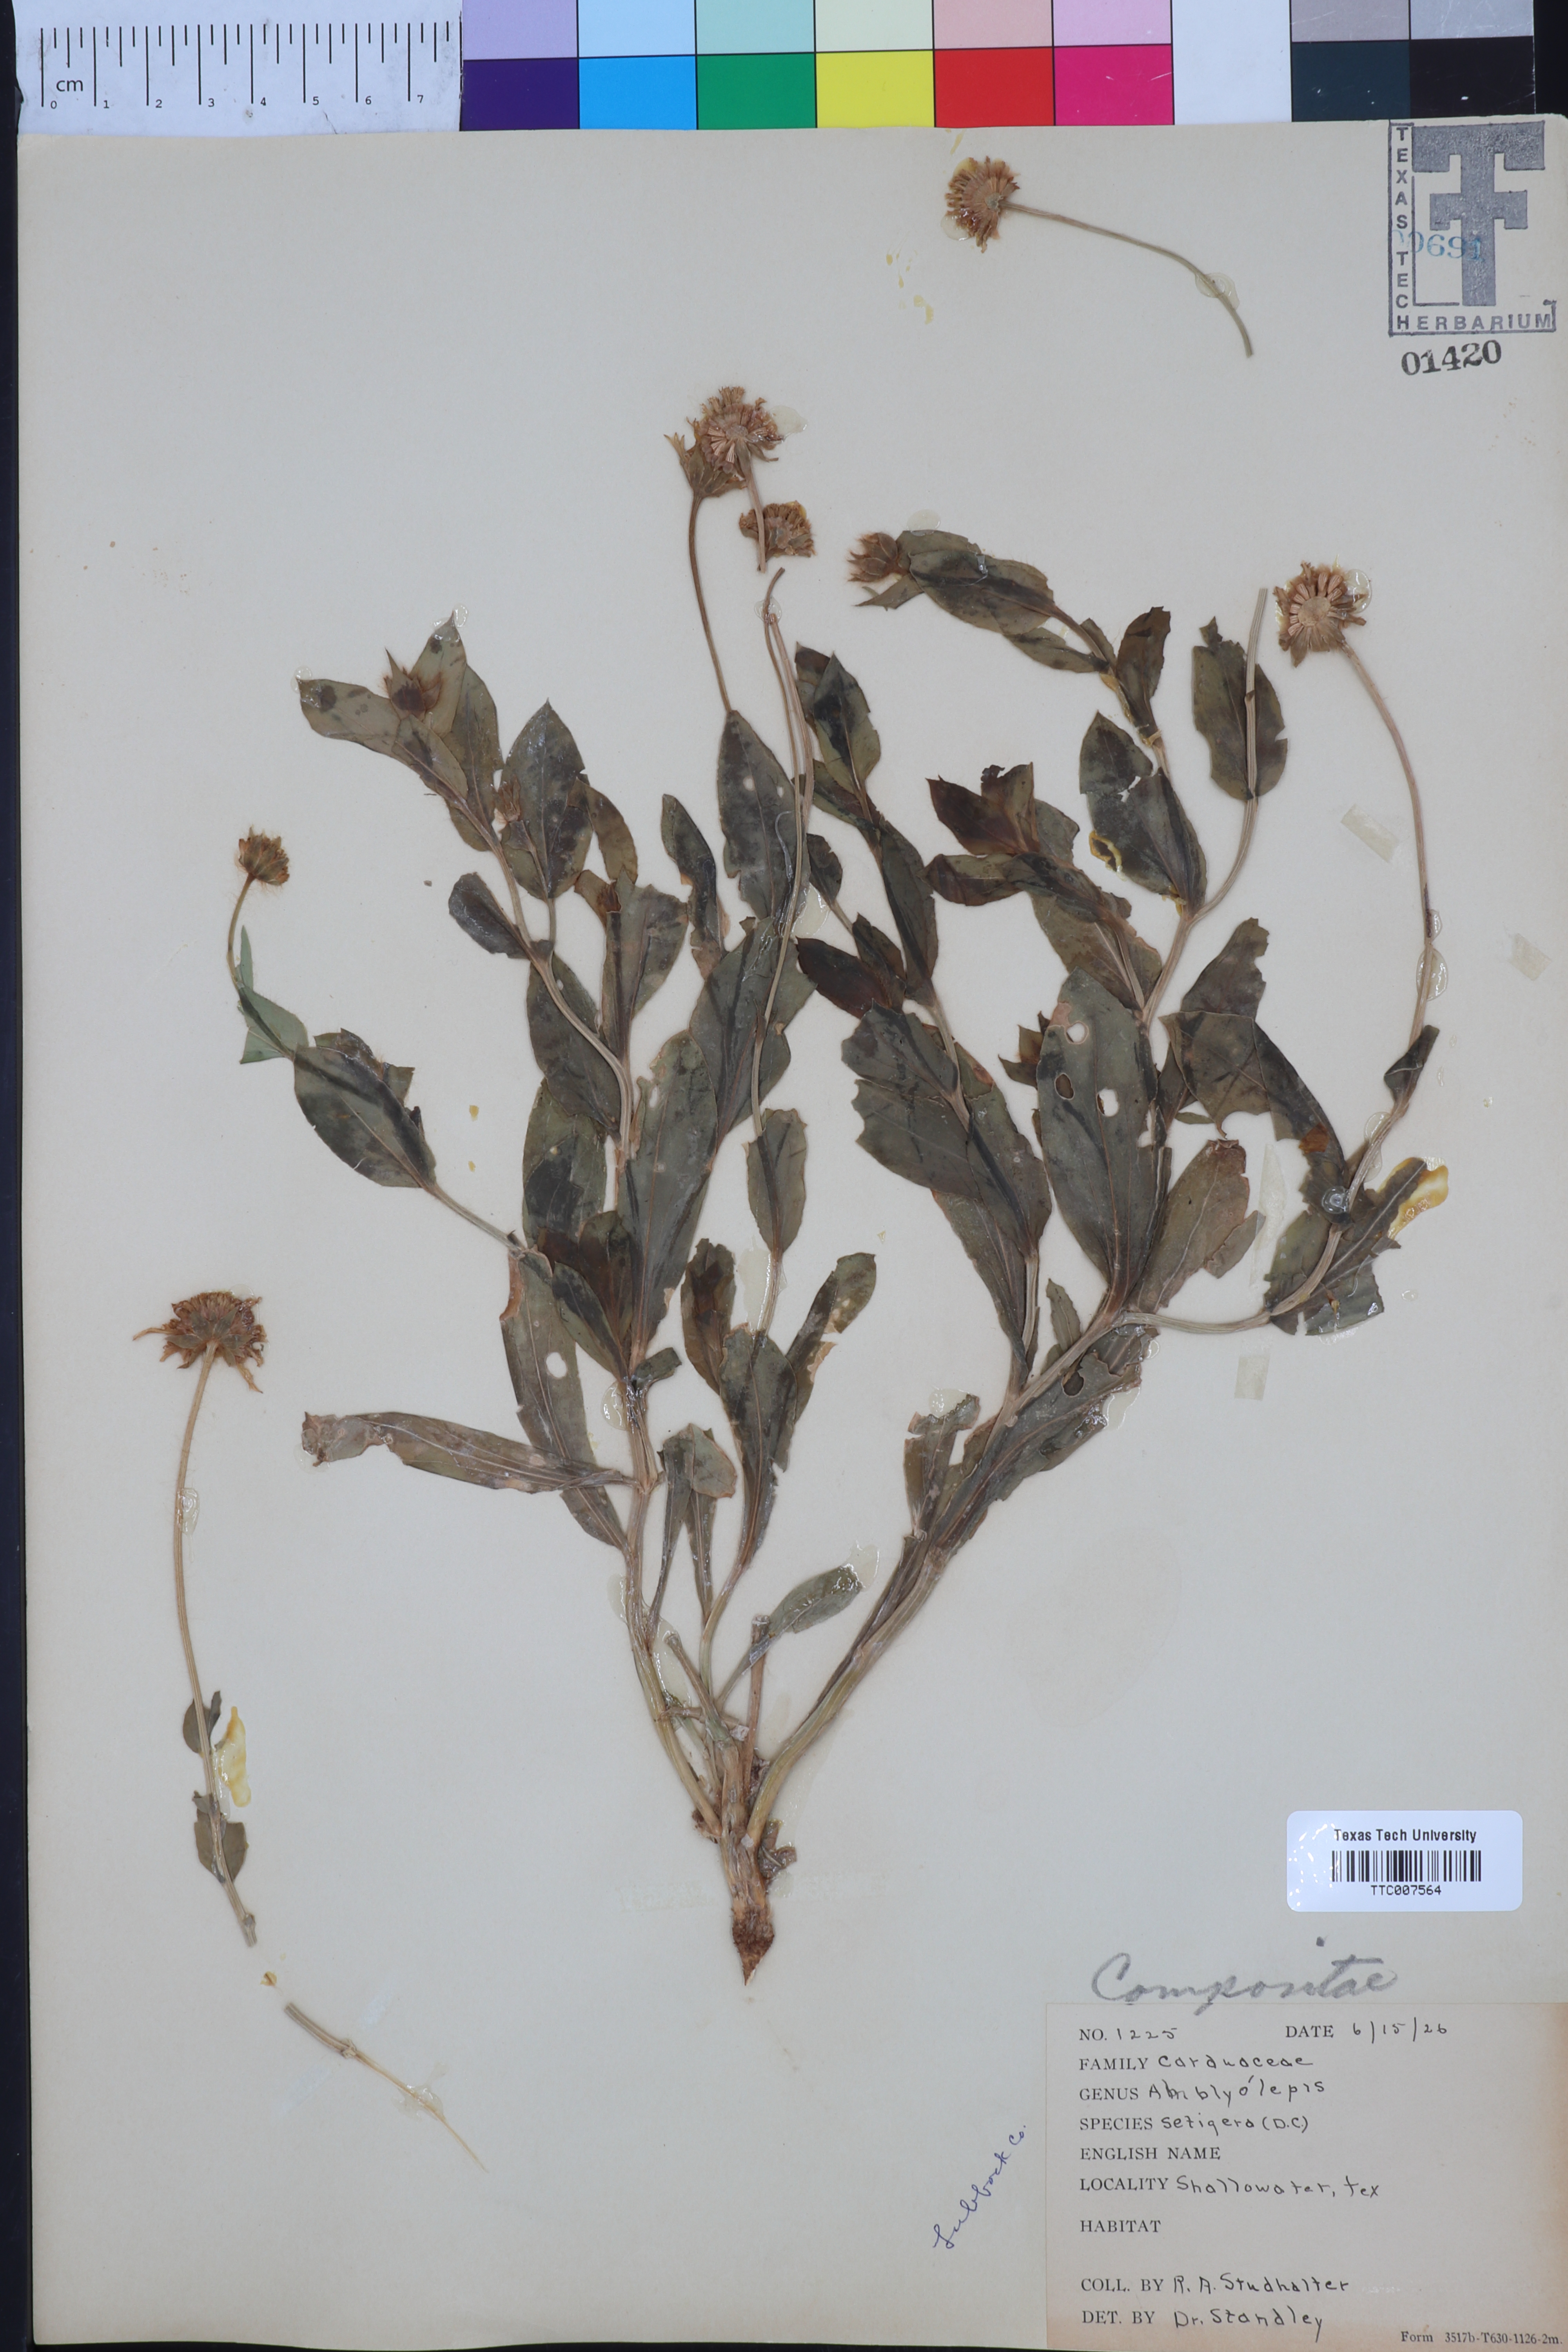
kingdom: Plantae
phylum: Tracheophyta
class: Magnoliopsida
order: Asterales
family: Asteraceae
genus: Amblyolepis
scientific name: Amblyolepis setigera
